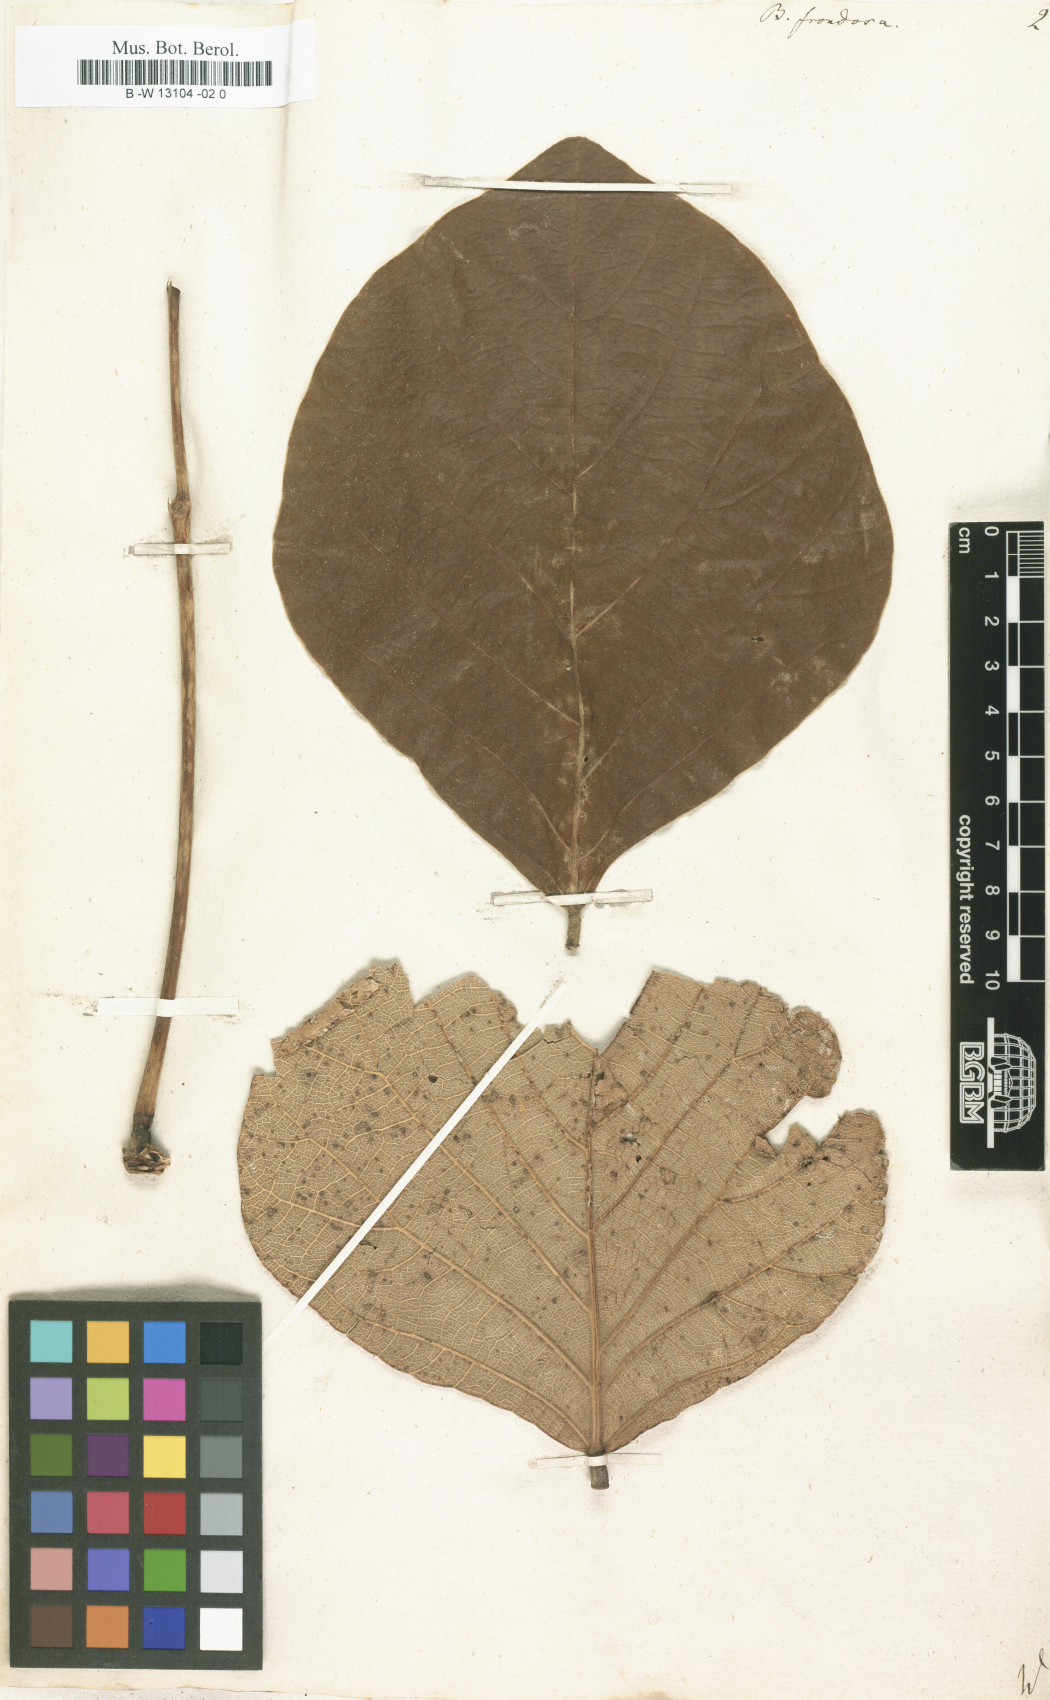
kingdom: Plantae
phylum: Tracheophyta
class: Magnoliopsida
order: Fabales
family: Fabaceae
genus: Butea
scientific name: Butea monosperma
